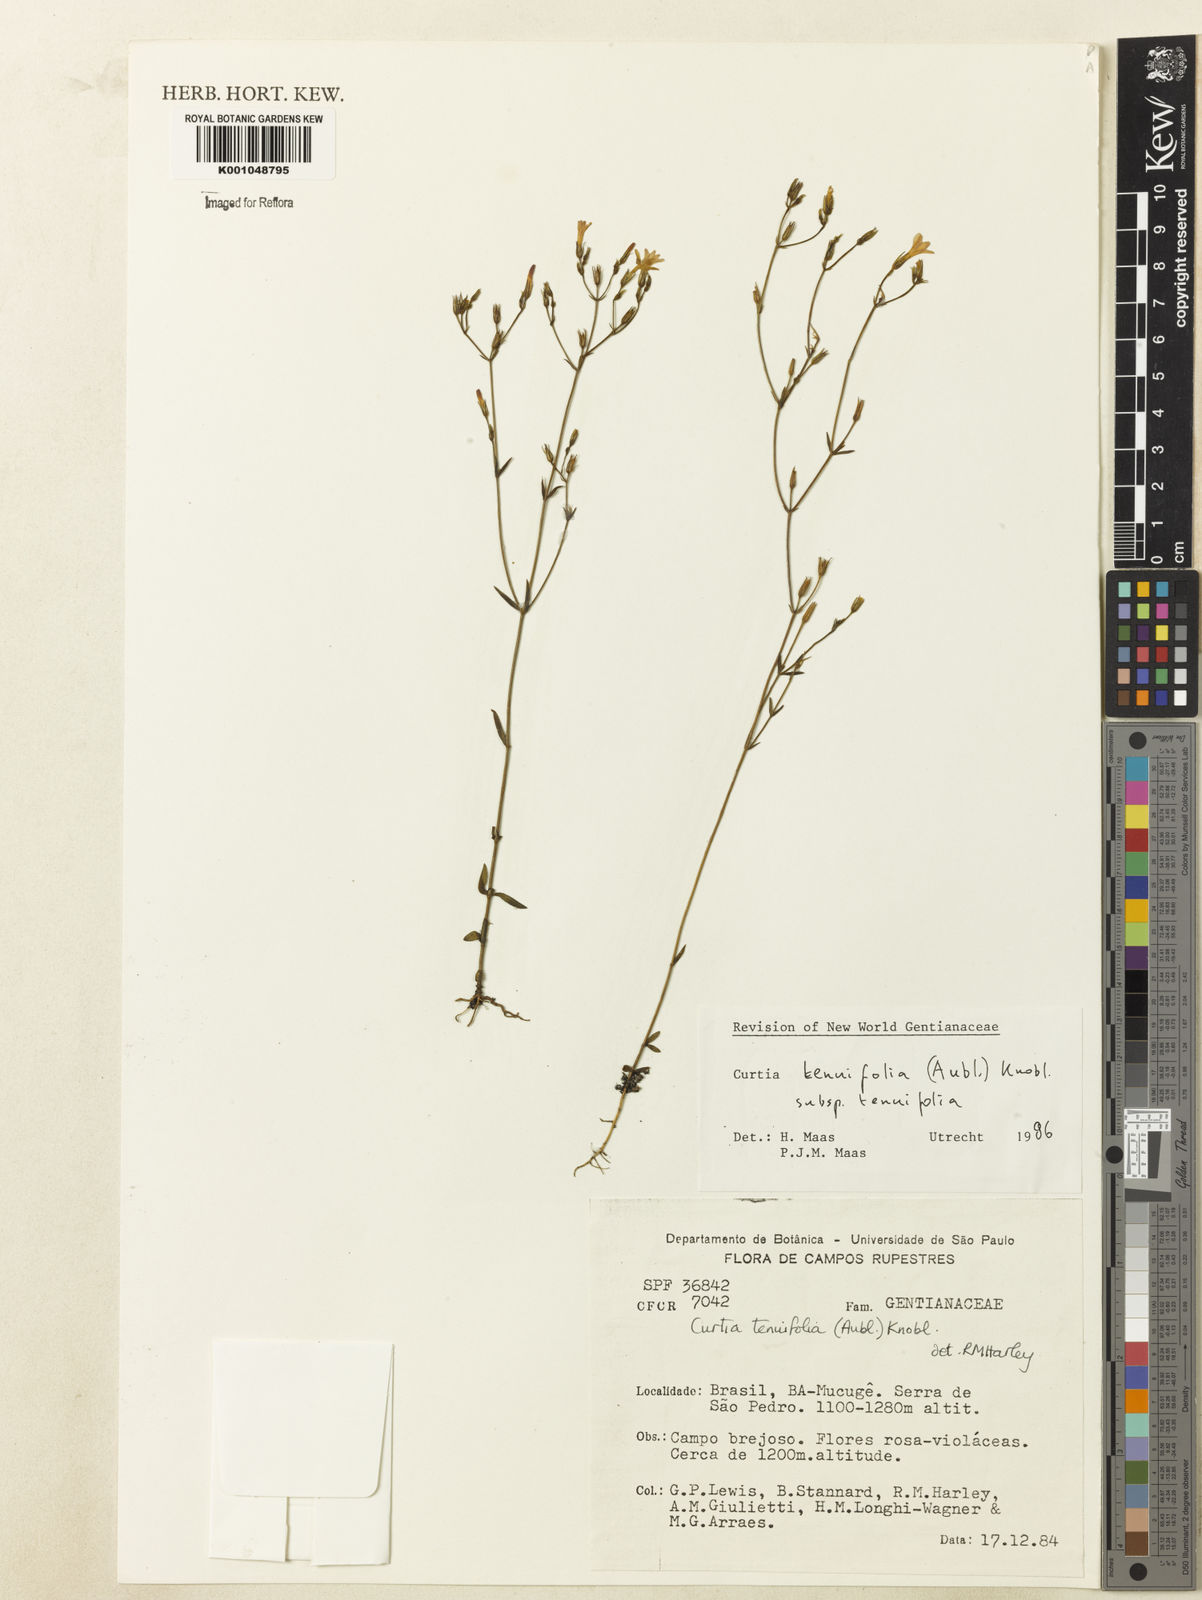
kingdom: Plantae
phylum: Tracheophyta
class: Magnoliopsida
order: Gentianales
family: Gentianaceae
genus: Curtia
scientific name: Curtia tenuifolia
